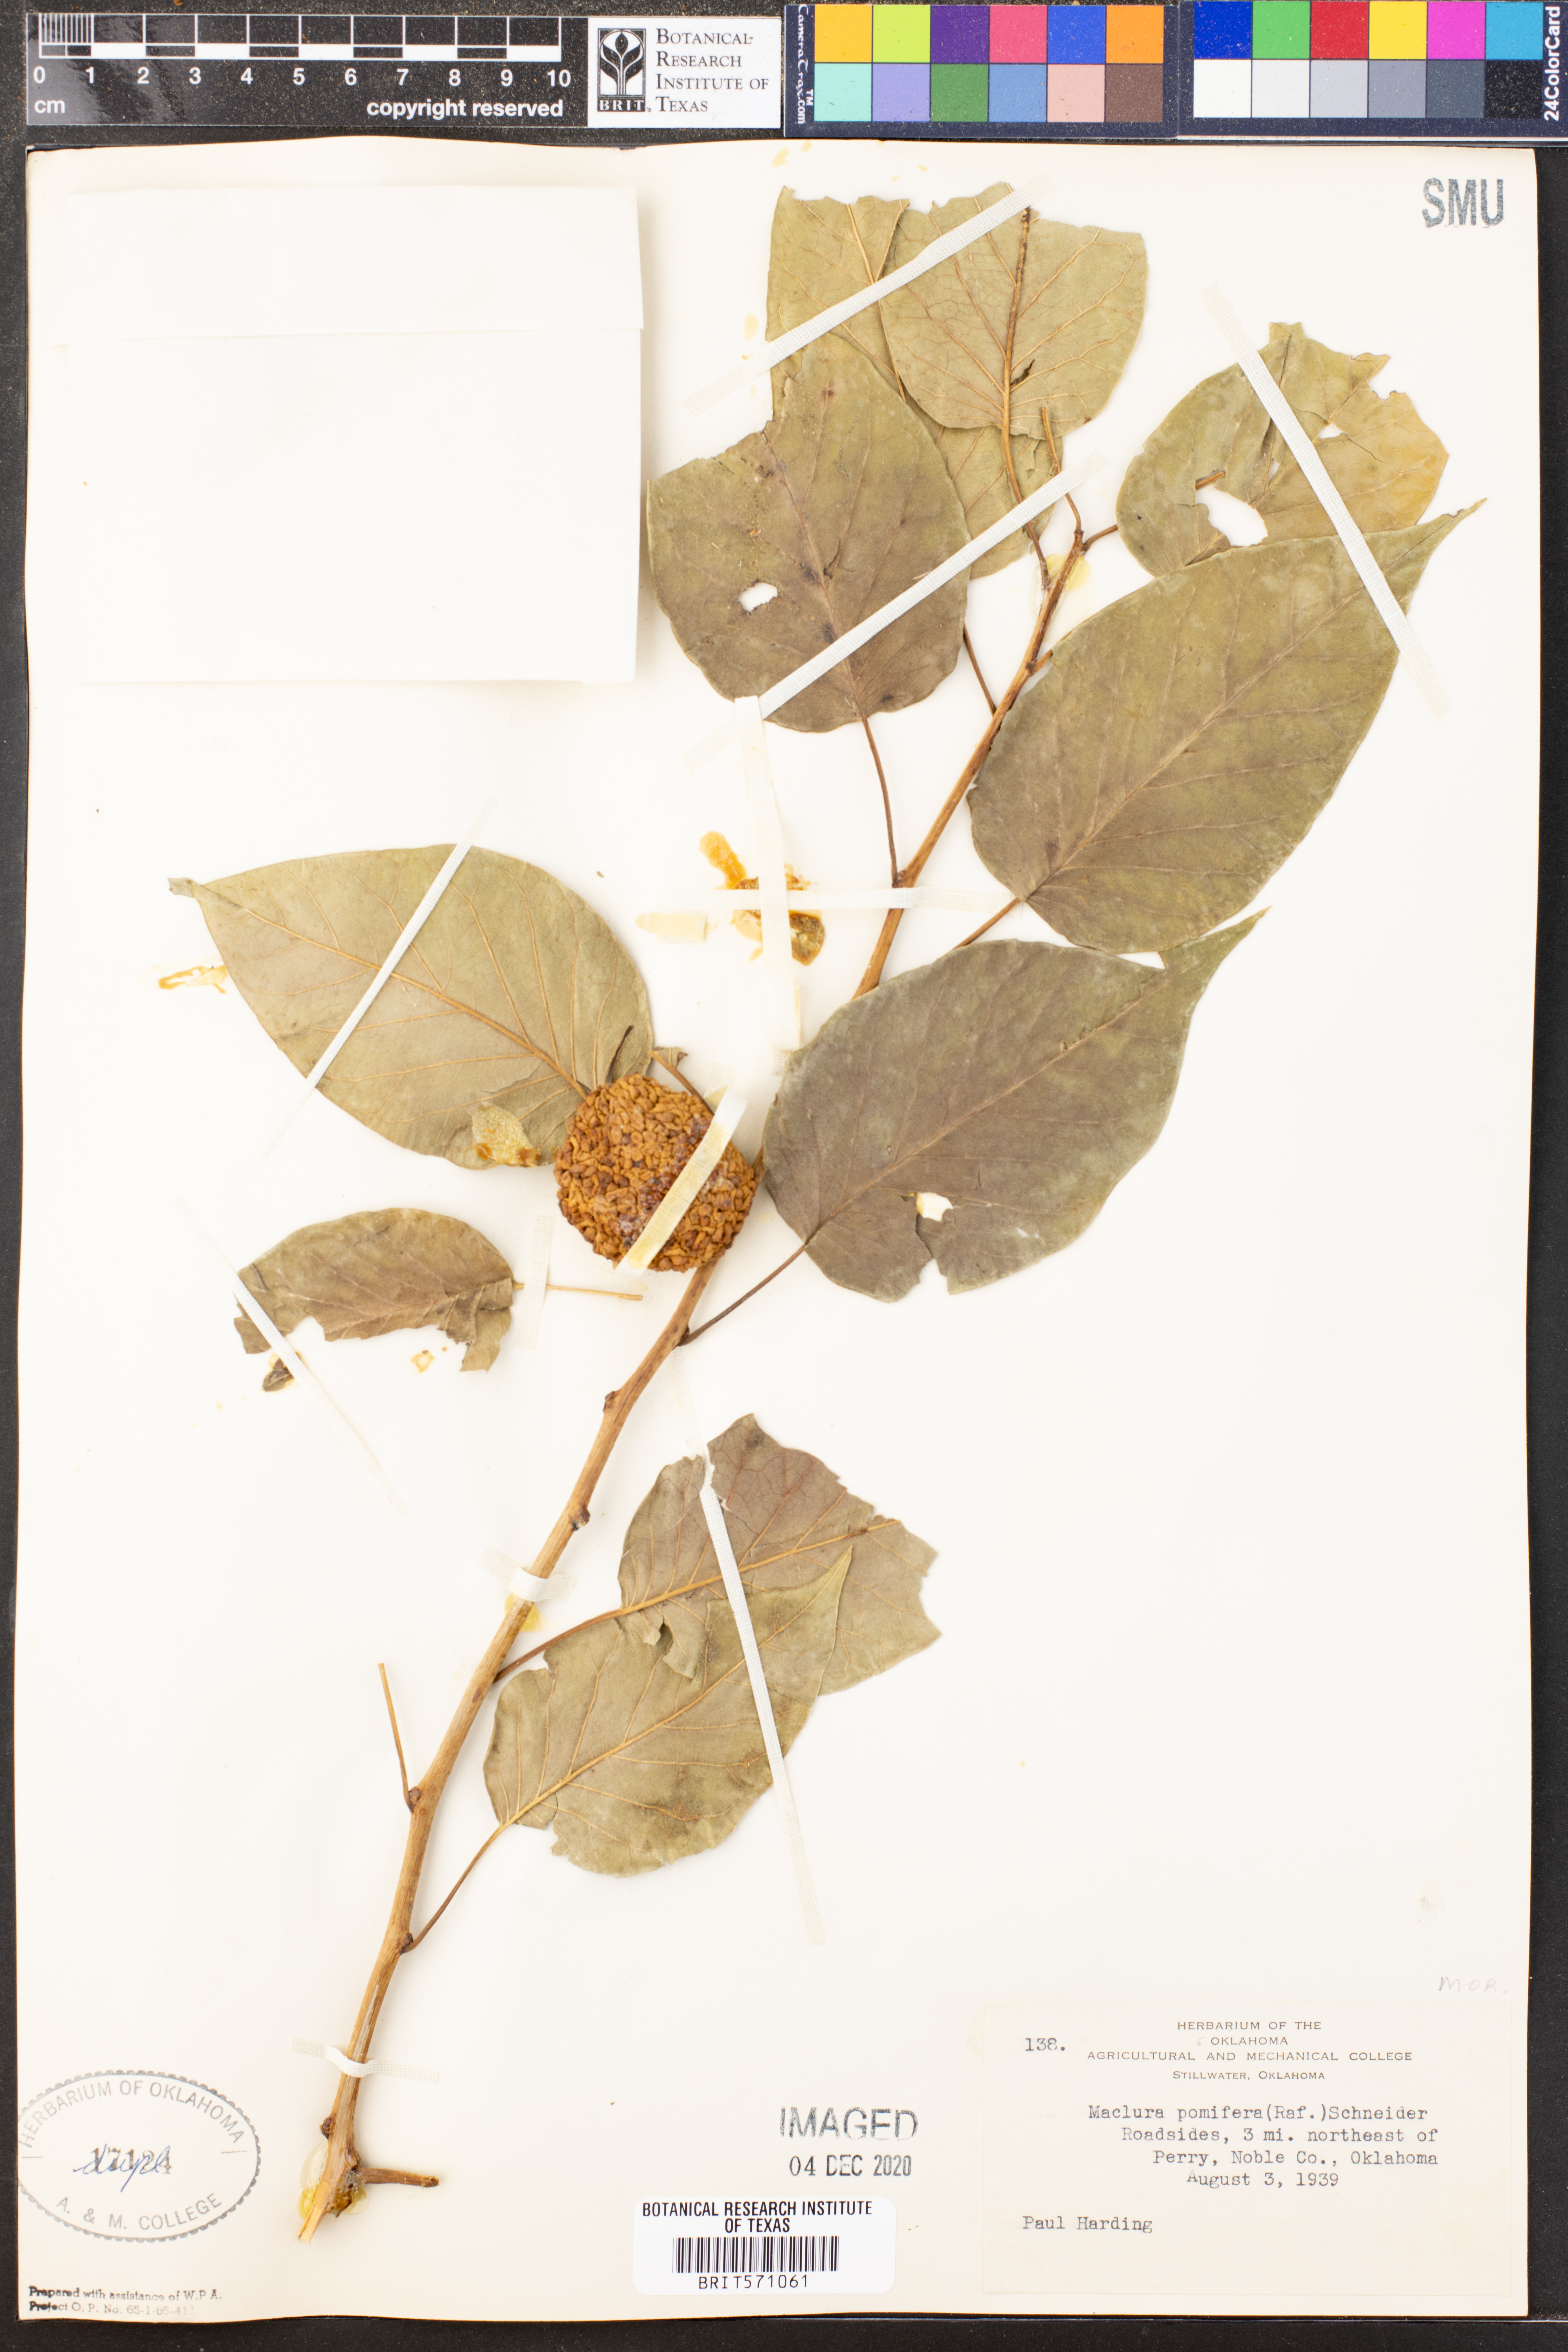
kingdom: Plantae
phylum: Tracheophyta
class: Magnoliopsida
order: Rosales
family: Moraceae
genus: Maclura
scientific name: Maclura pomifera
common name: Osage-orange
